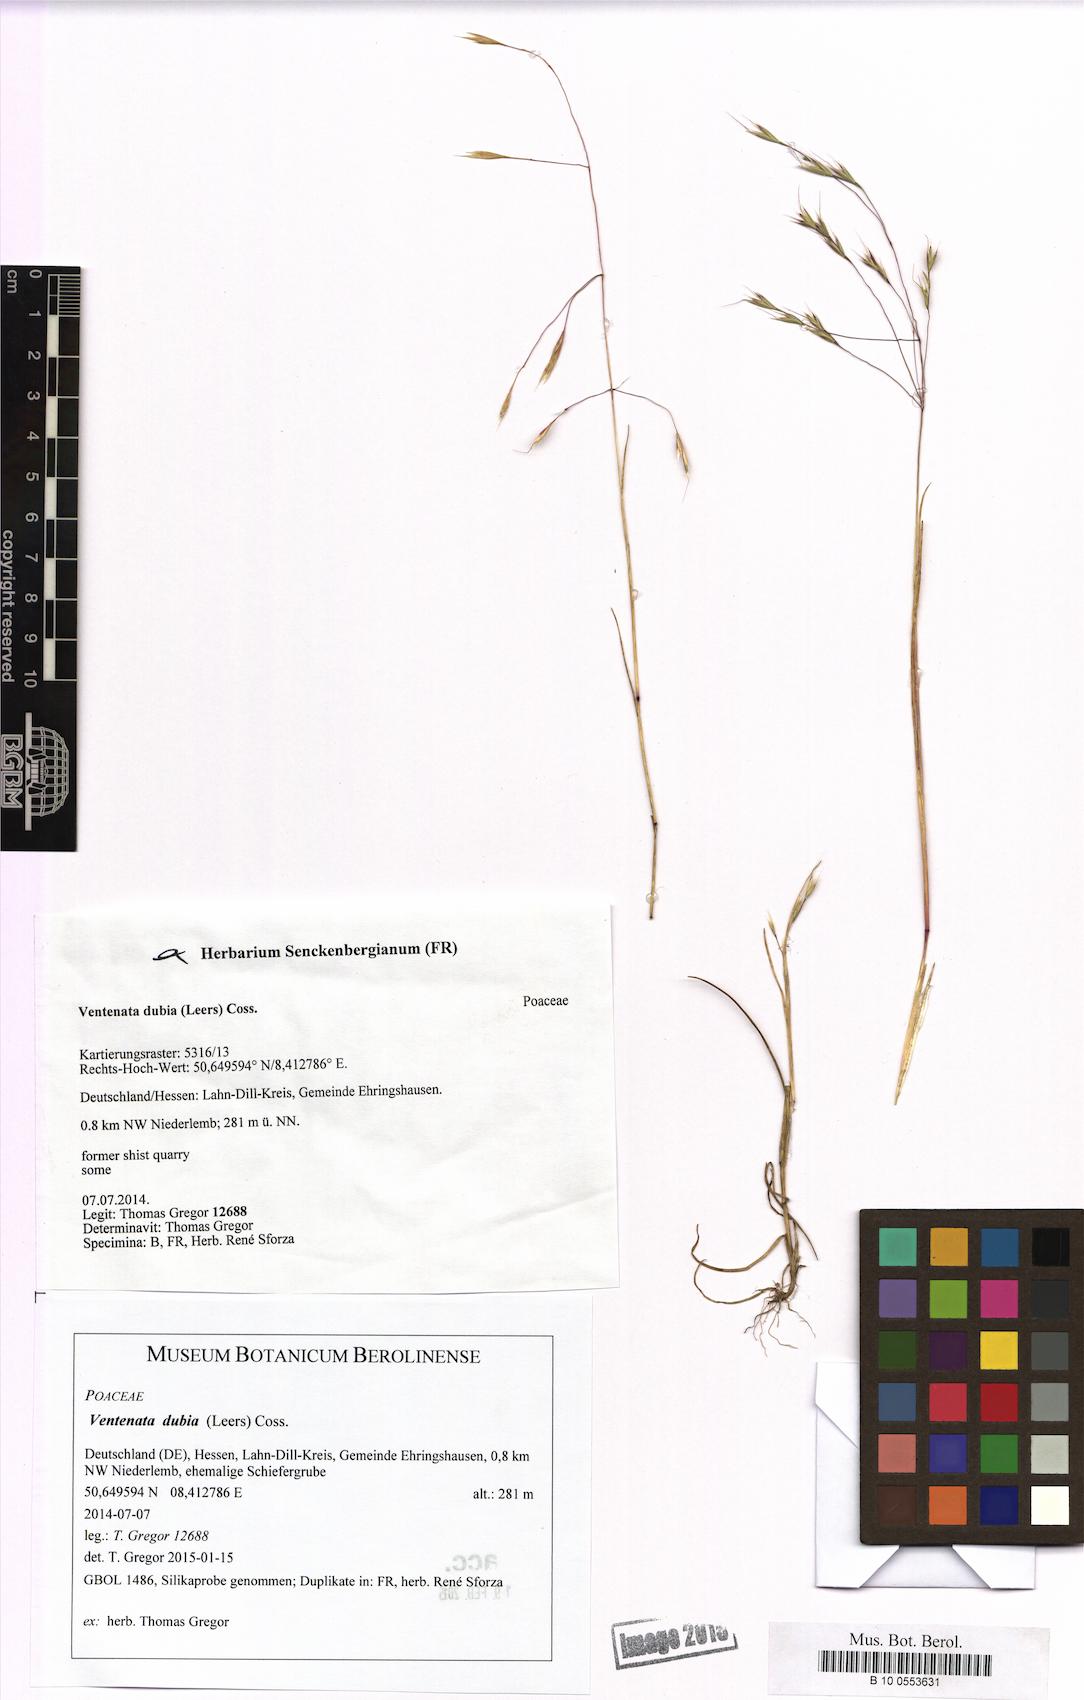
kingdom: Plantae
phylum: Tracheophyta
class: Liliopsida
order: Poales
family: Poaceae
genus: Ventenata
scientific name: Ventenata dubia
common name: North africa grass
